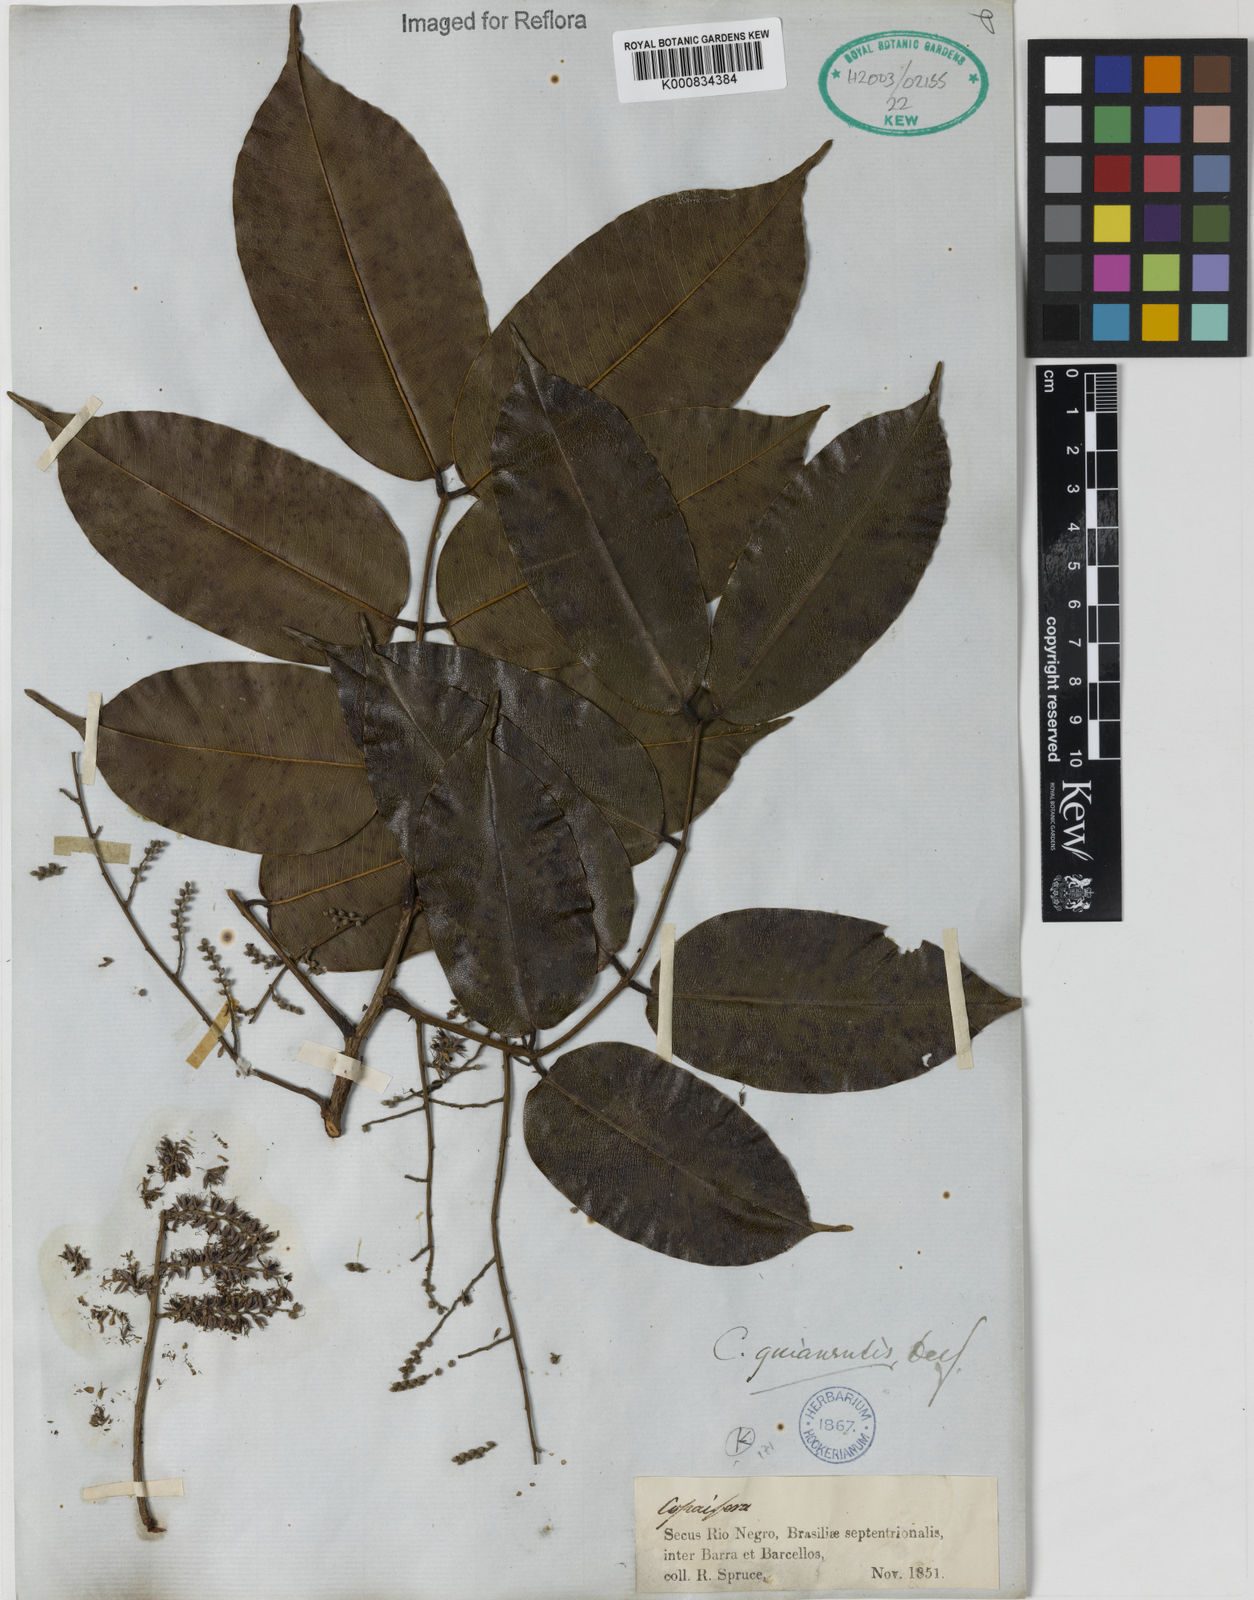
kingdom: Plantae
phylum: Tracheophyta
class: Magnoliopsida
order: Fabales
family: Fabaceae
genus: Copaifera
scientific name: Copaifera guianensis
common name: Copaiba
